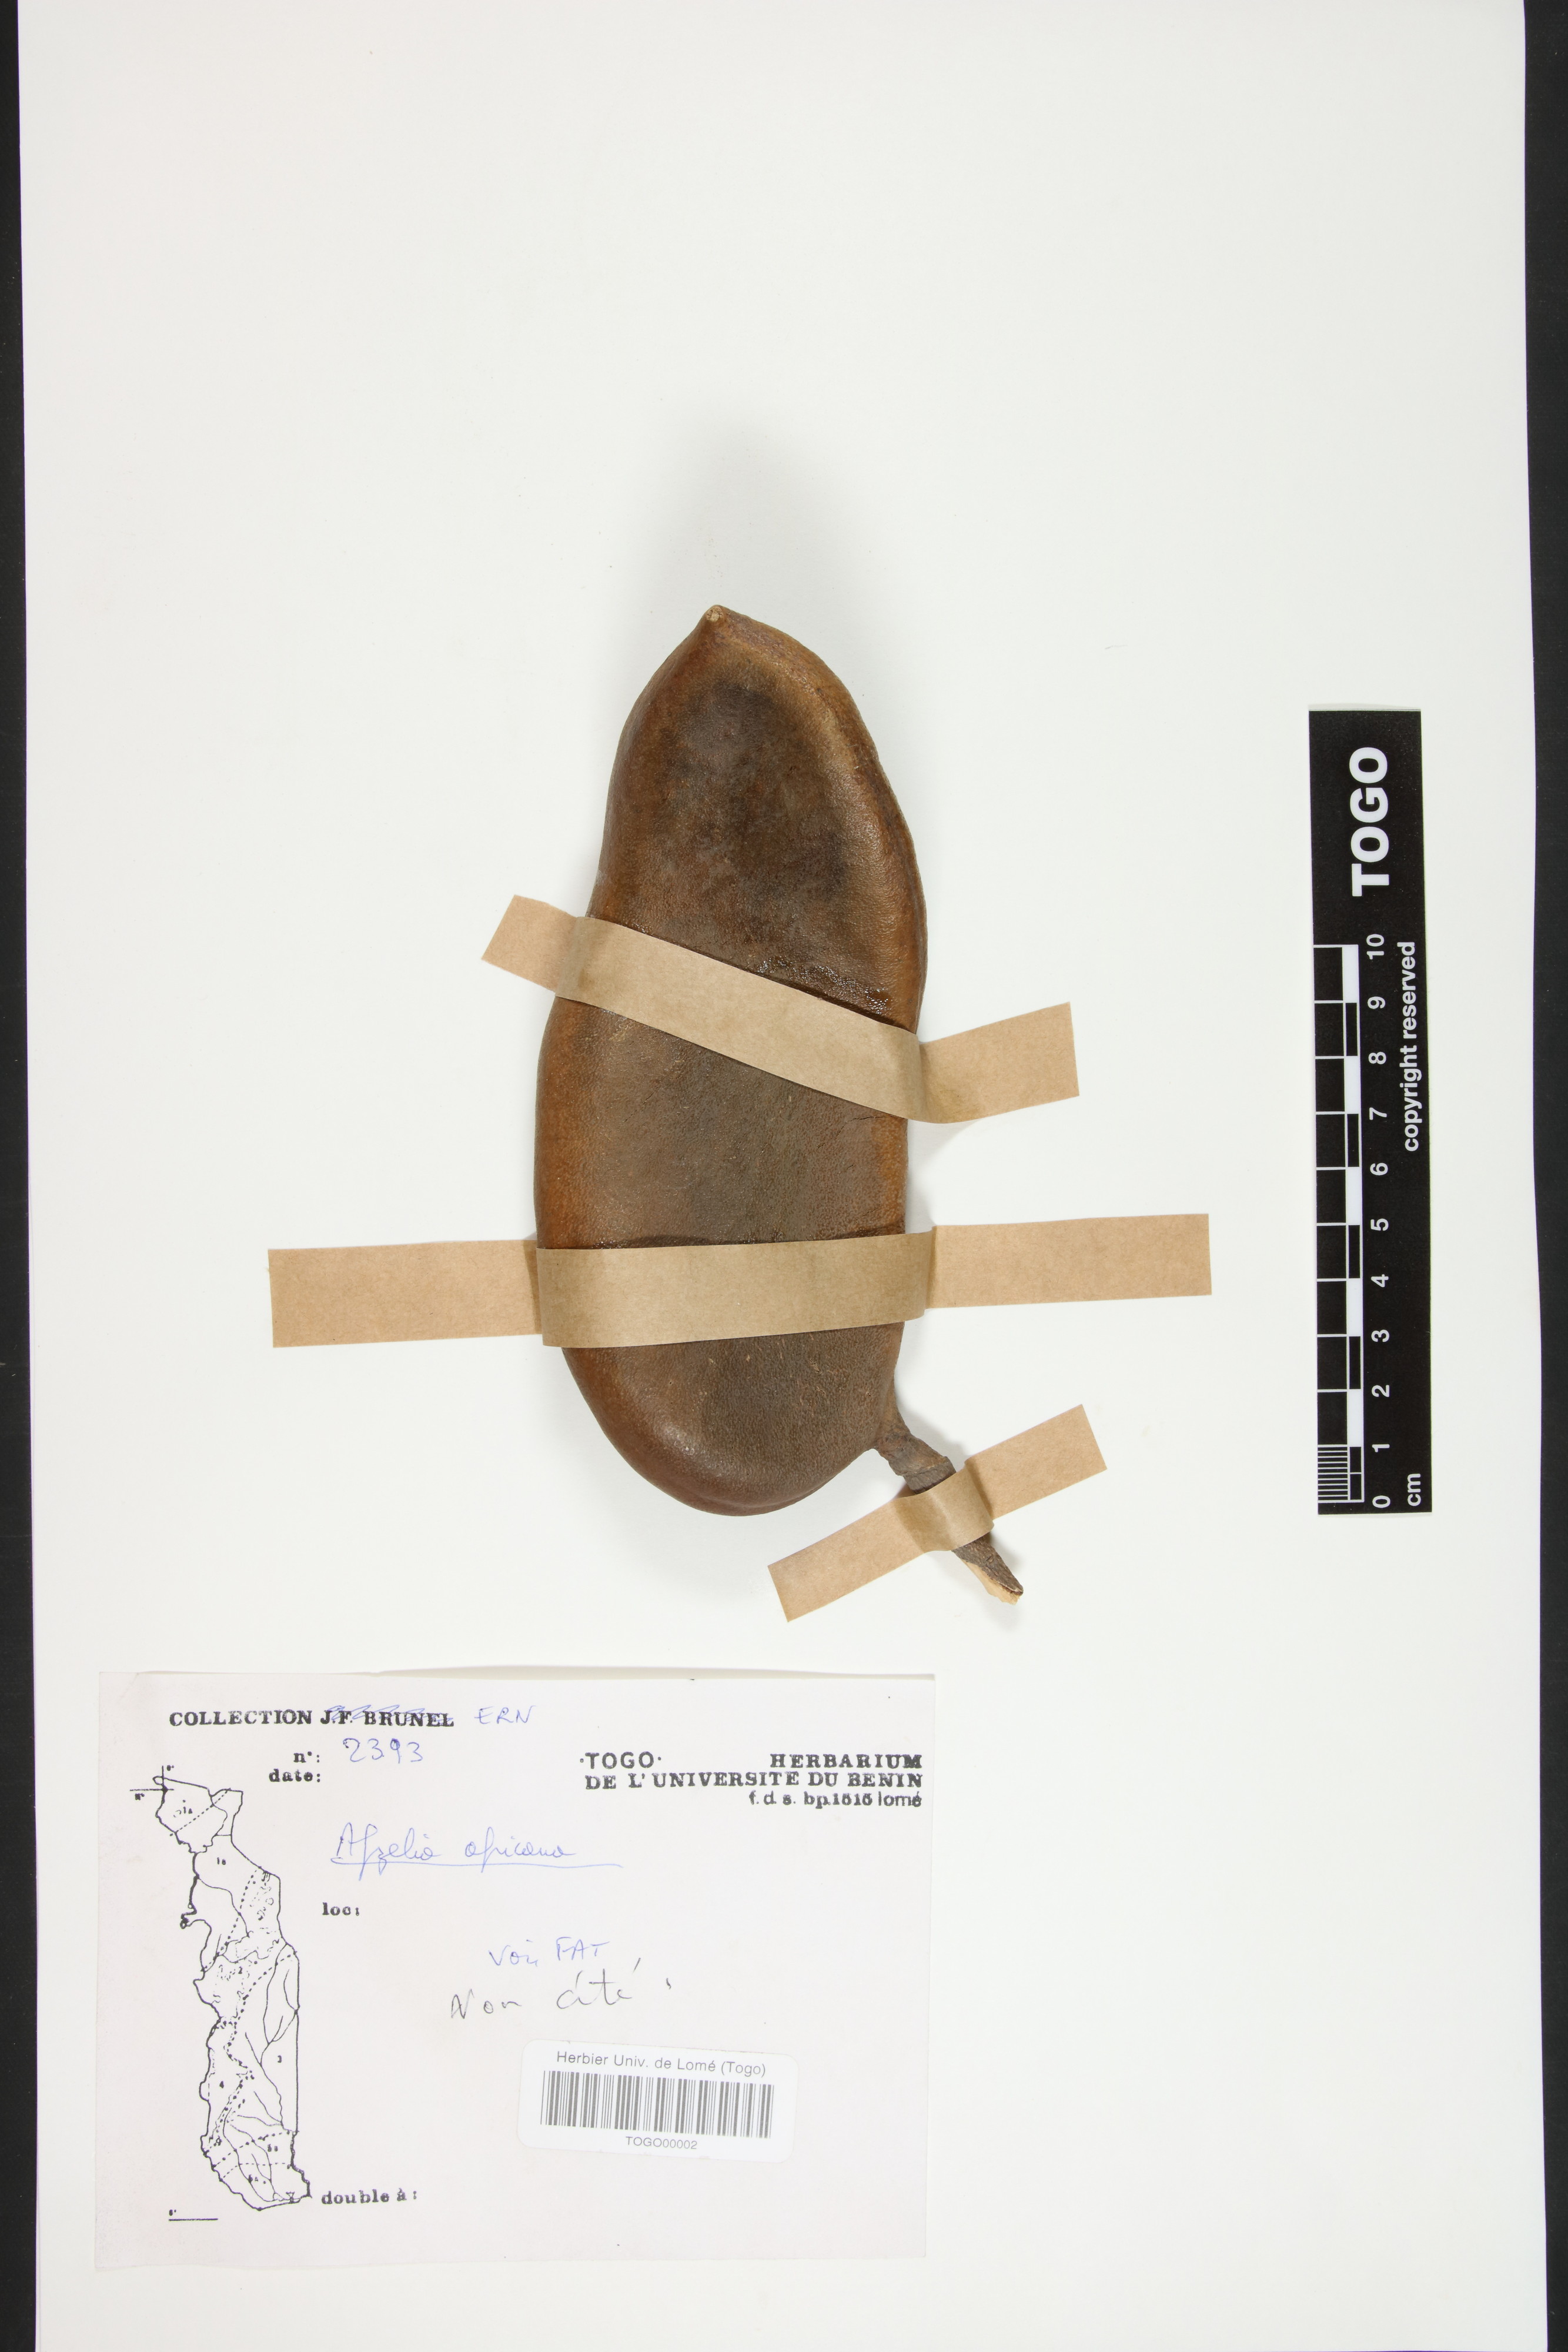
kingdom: Plantae
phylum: Tracheophyta
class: Magnoliopsida
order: Fabales
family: Fabaceae
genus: Afzelia
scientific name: Afzelia africana
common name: African-mahogany
